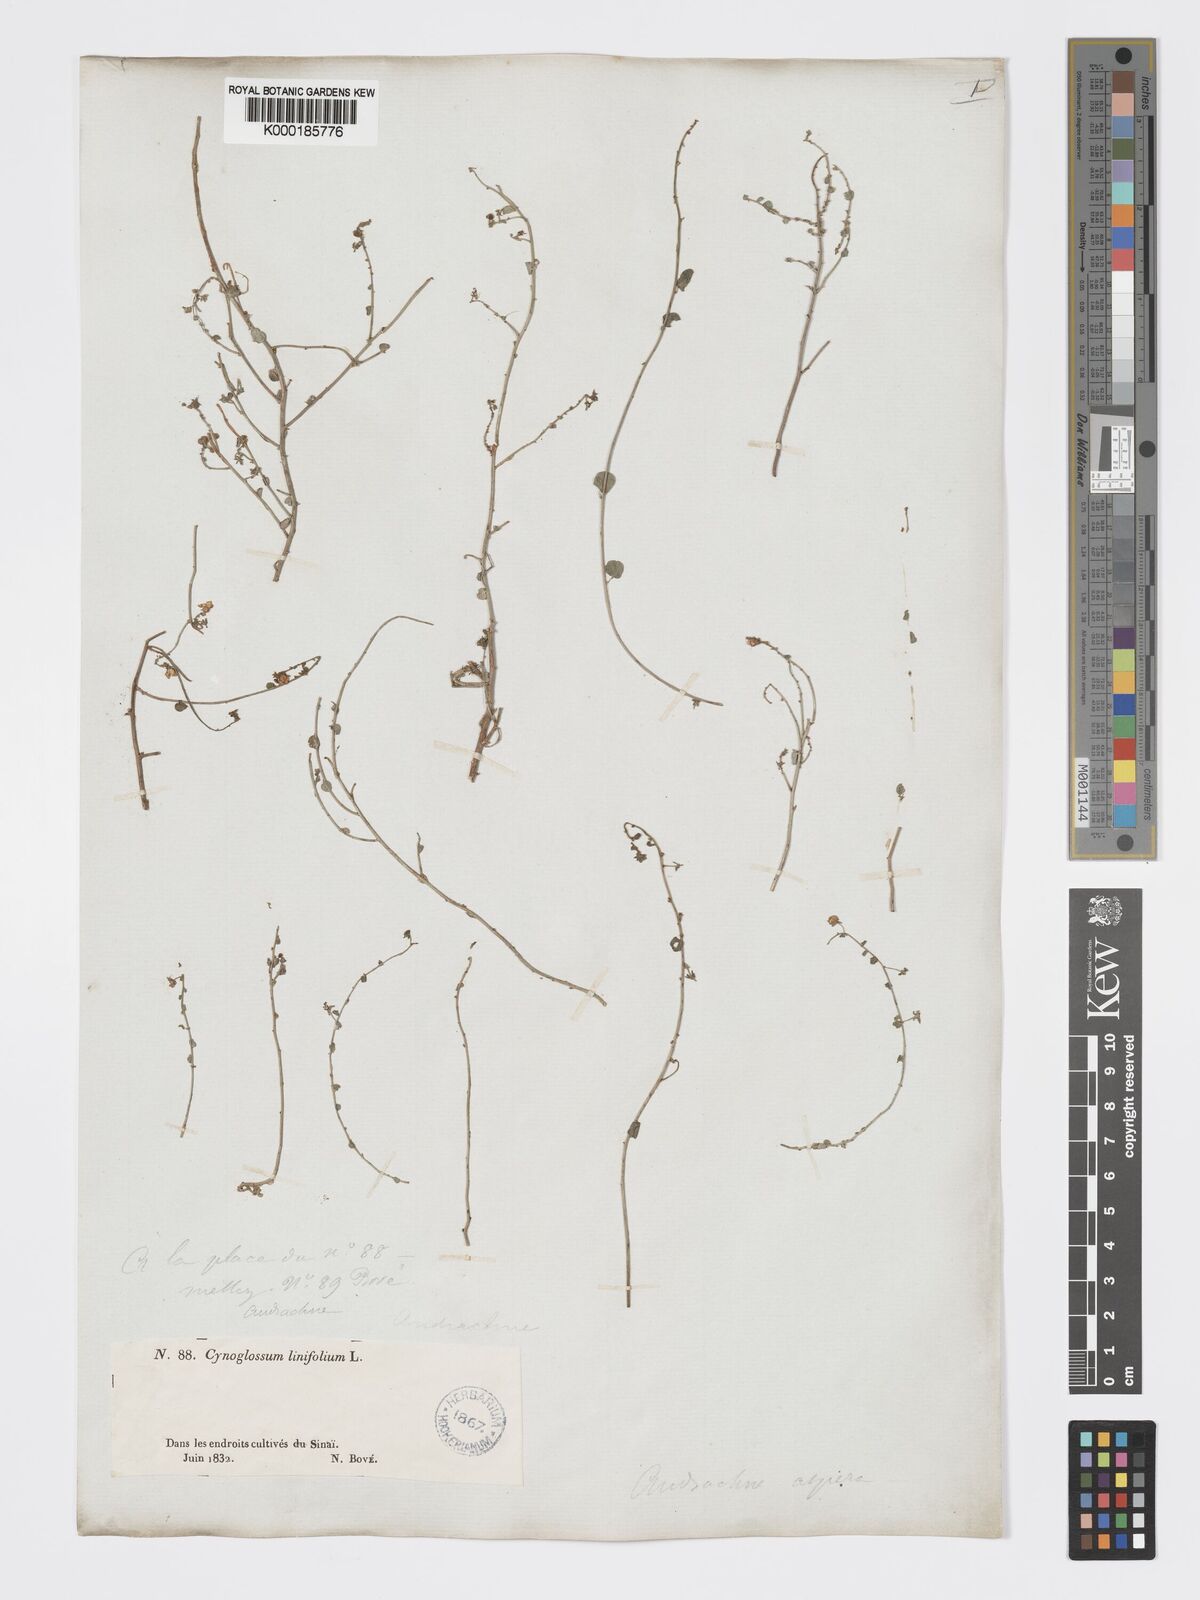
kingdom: Plantae
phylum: Tracheophyta
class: Magnoliopsida
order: Malpighiales
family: Phyllanthaceae
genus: Andrachne
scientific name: Andrachne aspera
